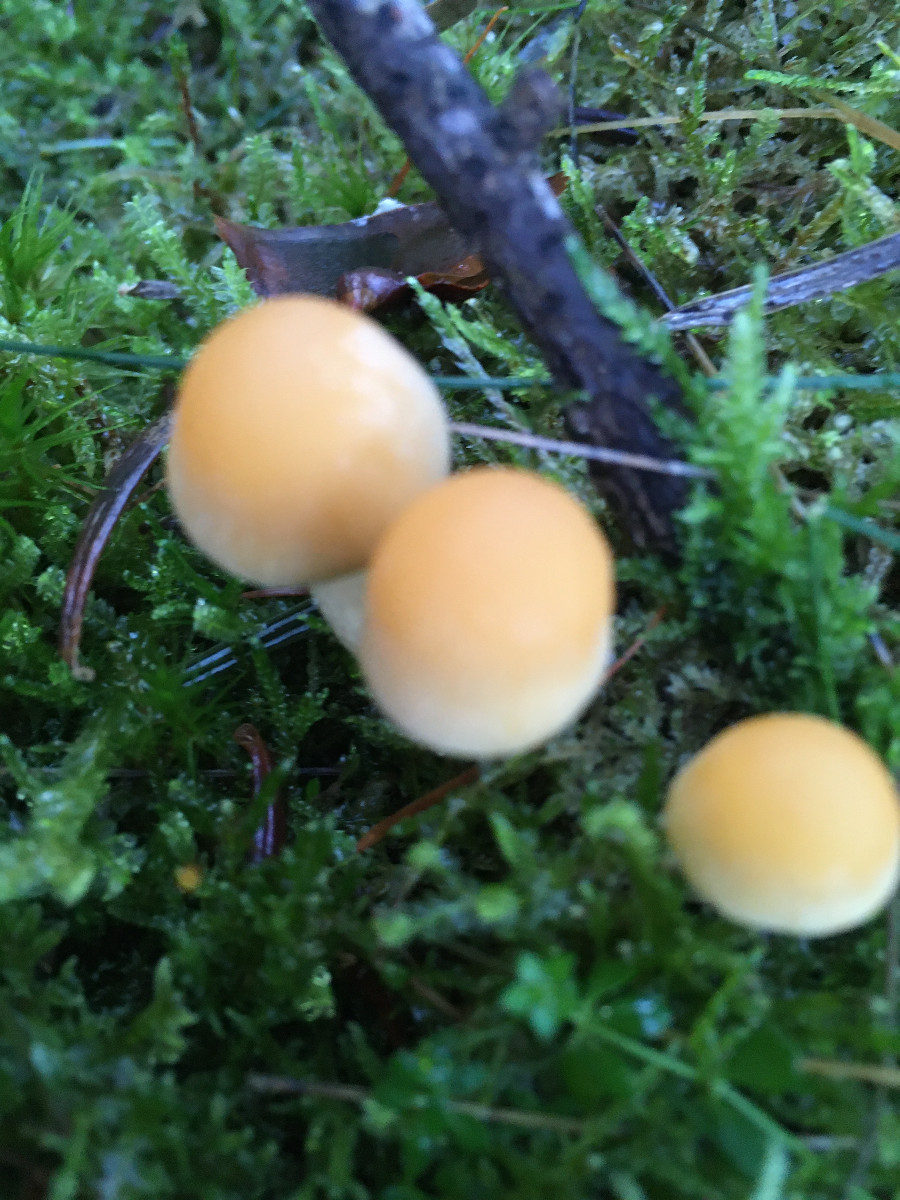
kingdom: Fungi
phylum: Basidiomycota
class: Agaricomycetes
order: Agaricales
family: Strophariaceae
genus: Hypholoma
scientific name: Hypholoma capnoides
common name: gran-svovlhat
